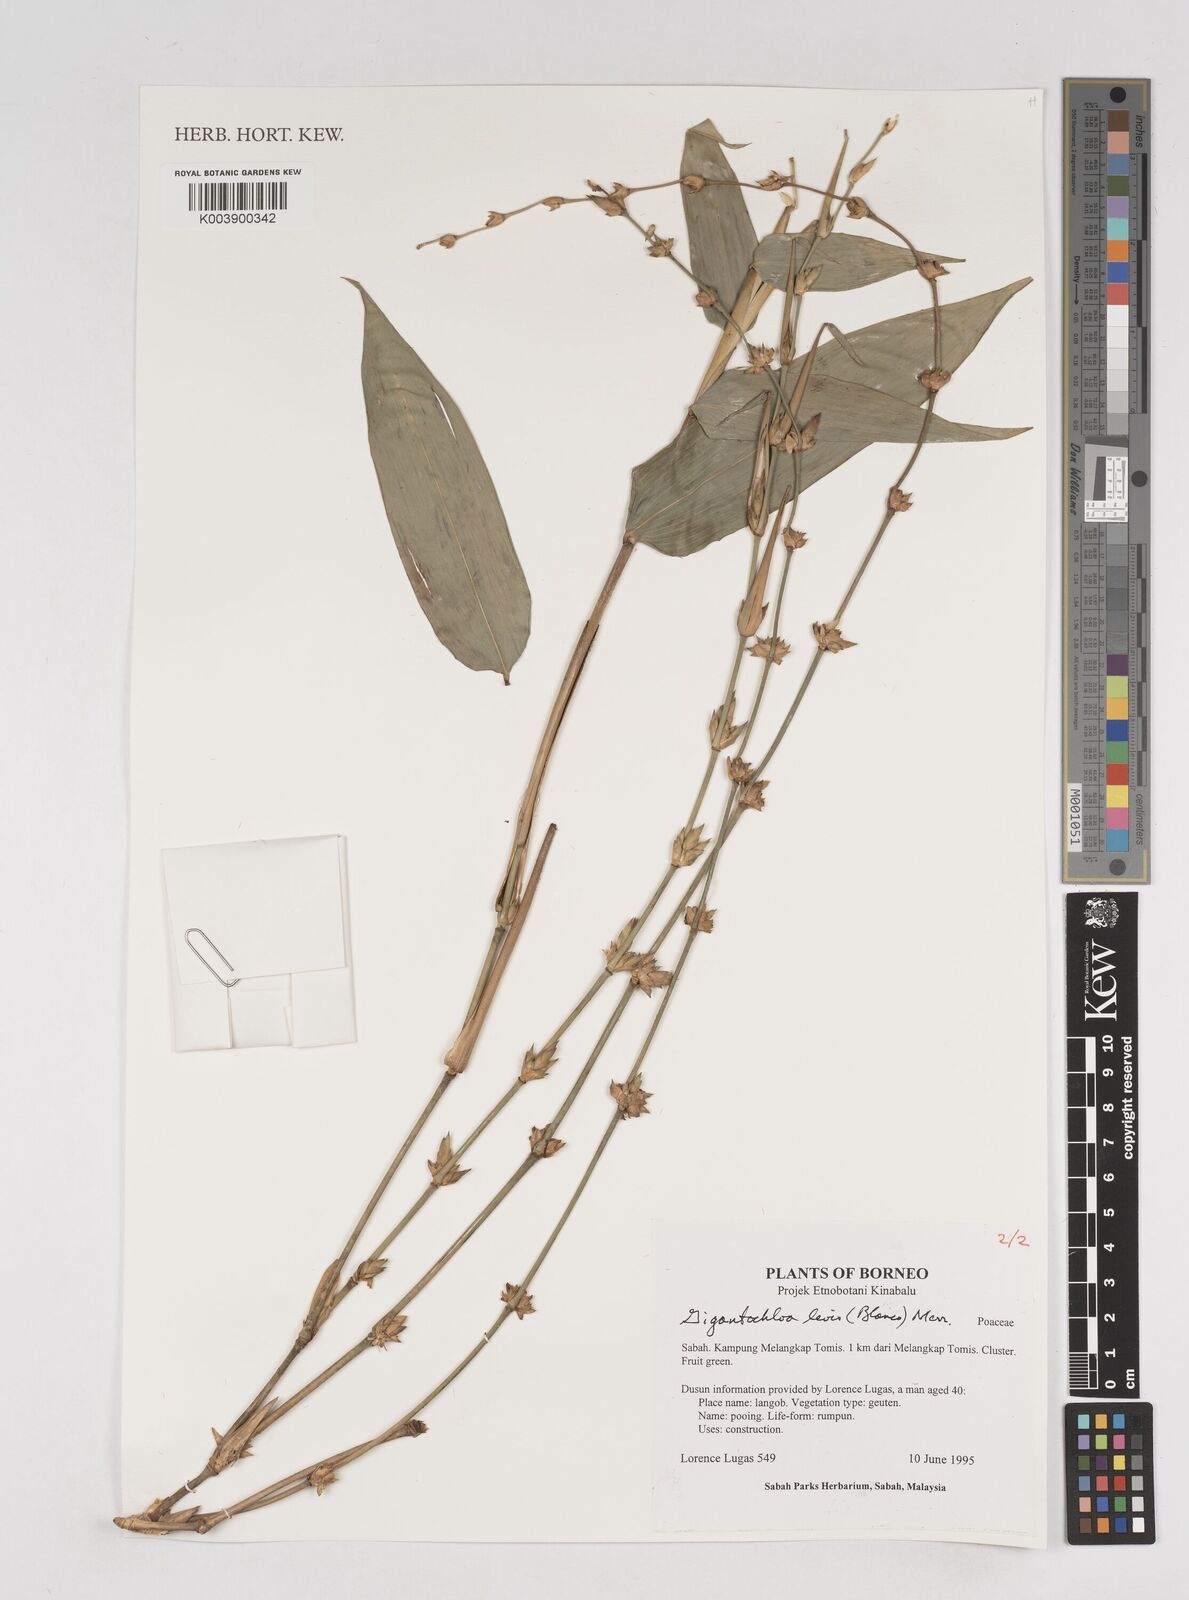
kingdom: Plantae
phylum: Tracheophyta
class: Liliopsida
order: Poales
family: Poaceae
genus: Gigantochloa
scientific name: Gigantochloa levis
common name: Smooth-shoot gigantochloa
